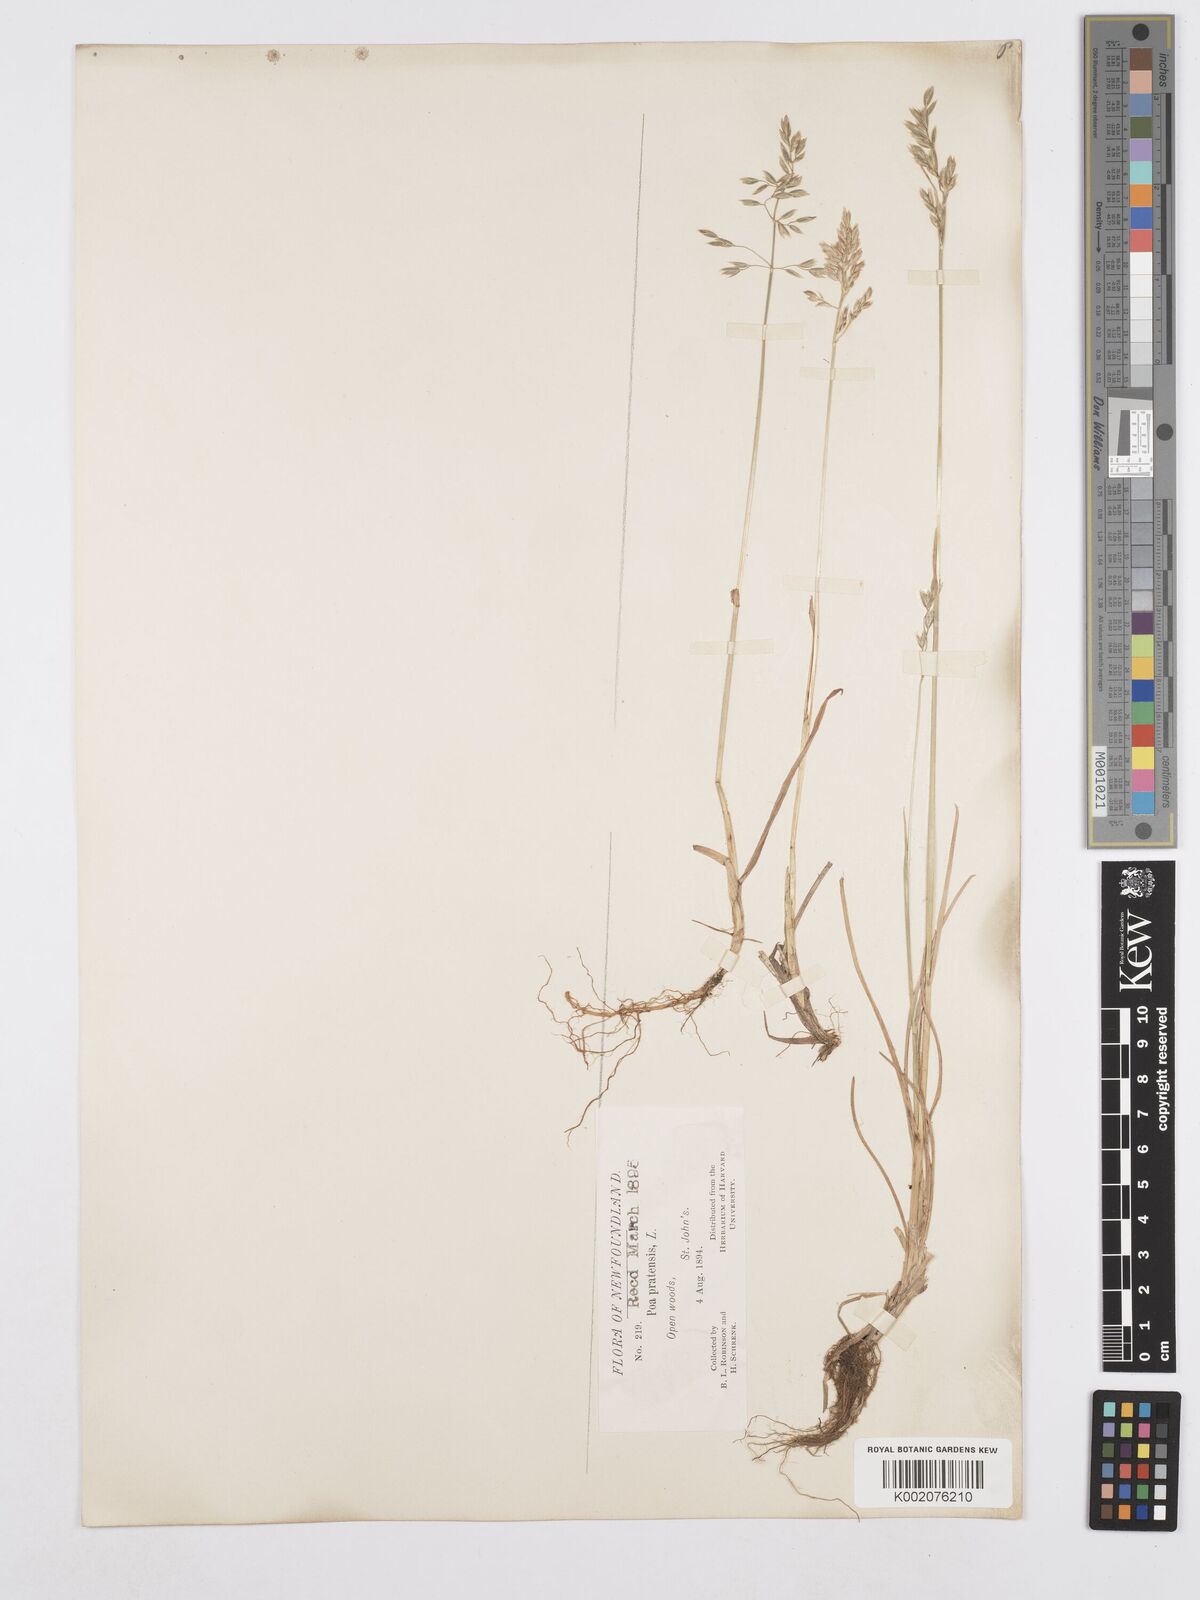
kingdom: Plantae
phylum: Tracheophyta
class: Liliopsida
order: Poales
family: Poaceae
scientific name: Poaceae
